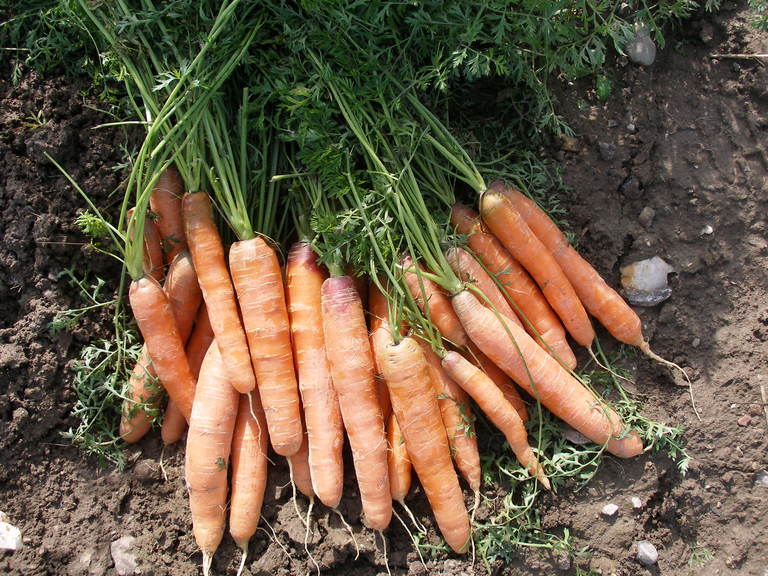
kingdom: Plantae
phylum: Tracheophyta
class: Magnoliopsida
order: Apiales
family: Apiaceae
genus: Daucus
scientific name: Daucus carota
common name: Wild carrot
